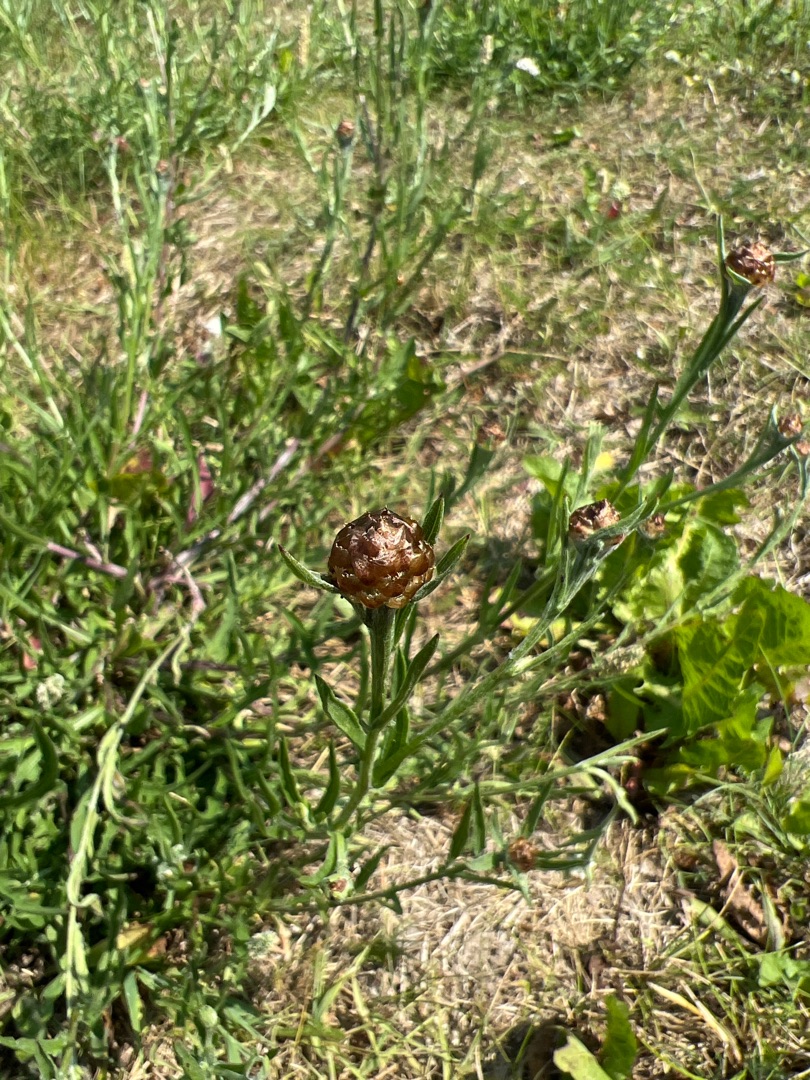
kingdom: Plantae
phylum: Tracheophyta
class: Magnoliopsida
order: Asterales
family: Asteraceae
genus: Centaurea
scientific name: Centaurea jacea
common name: Almindelig knopurt
